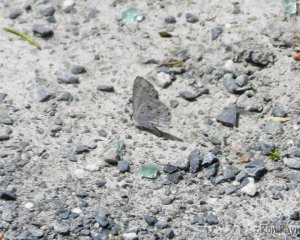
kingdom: Animalia
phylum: Arthropoda
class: Insecta
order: Lepidoptera
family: Lycaenidae
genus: Celastrina
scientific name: Celastrina serotina
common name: Cherry Gall Azure
